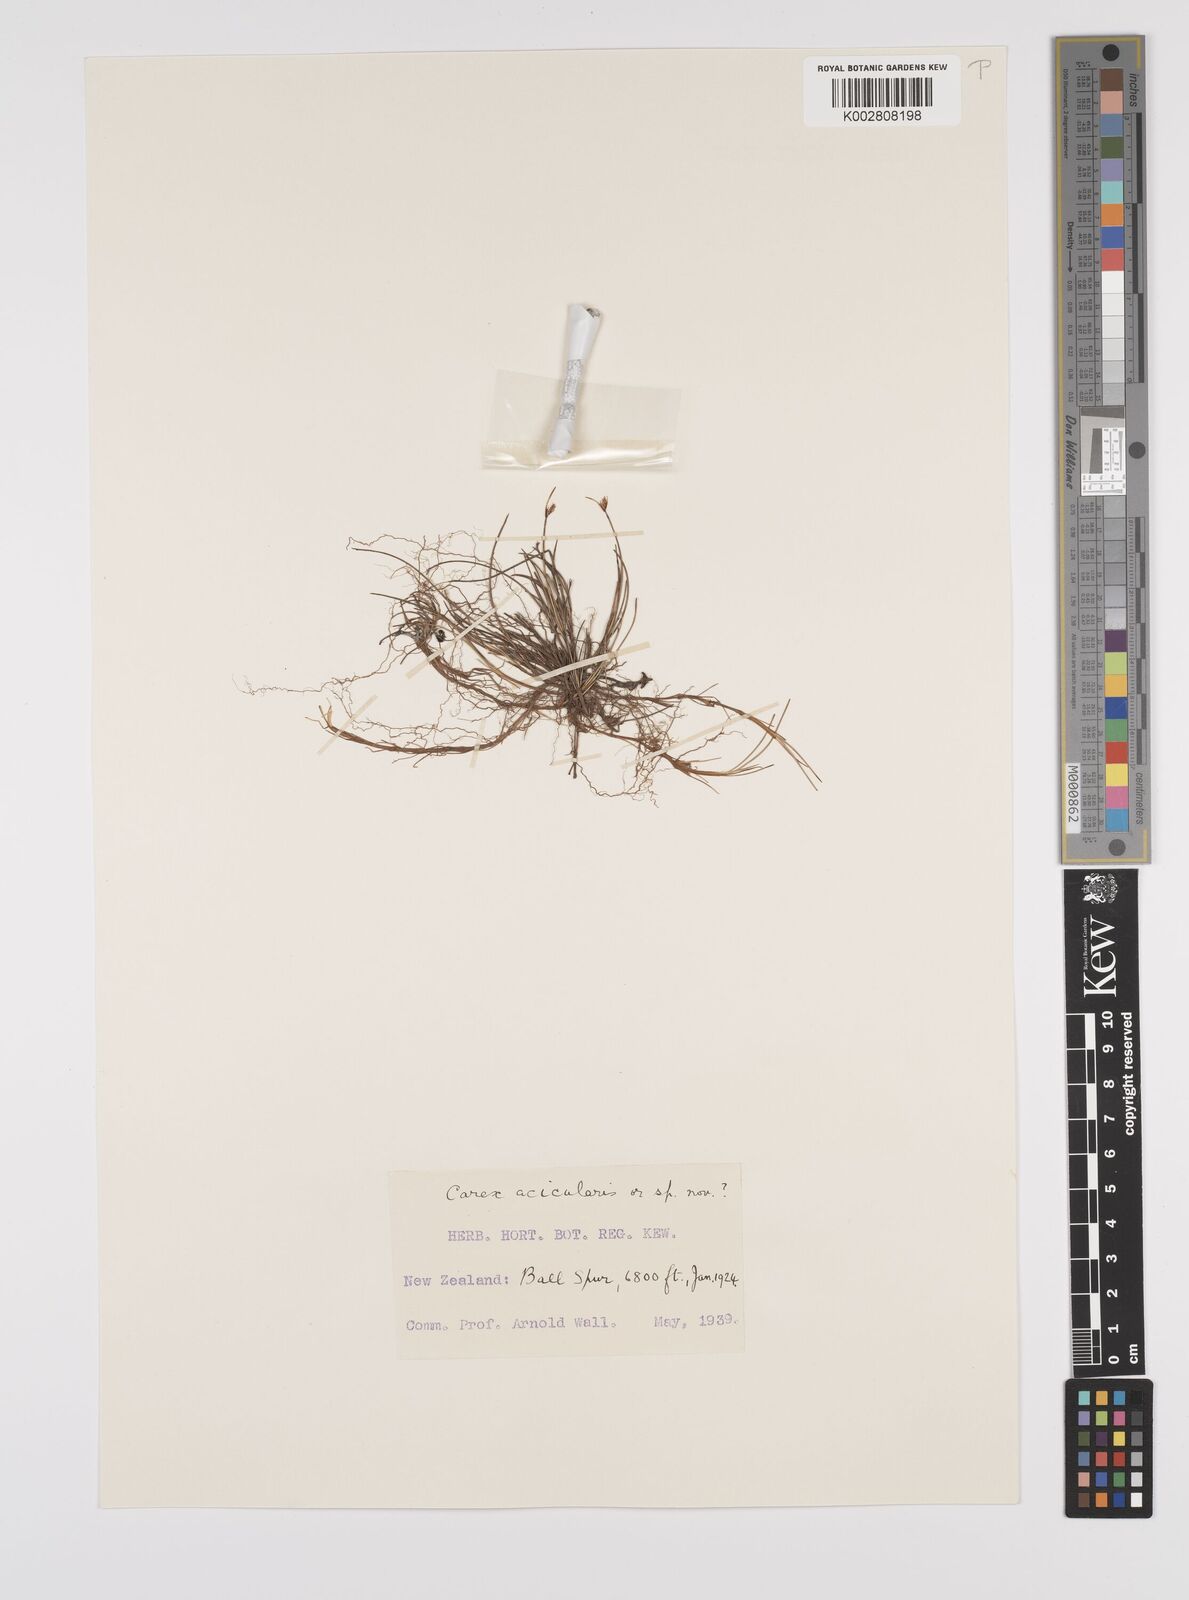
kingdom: Plantae
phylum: Tracheophyta
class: Liliopsida
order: Poales
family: Cyperaceae
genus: Carex
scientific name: Carex acicularis
